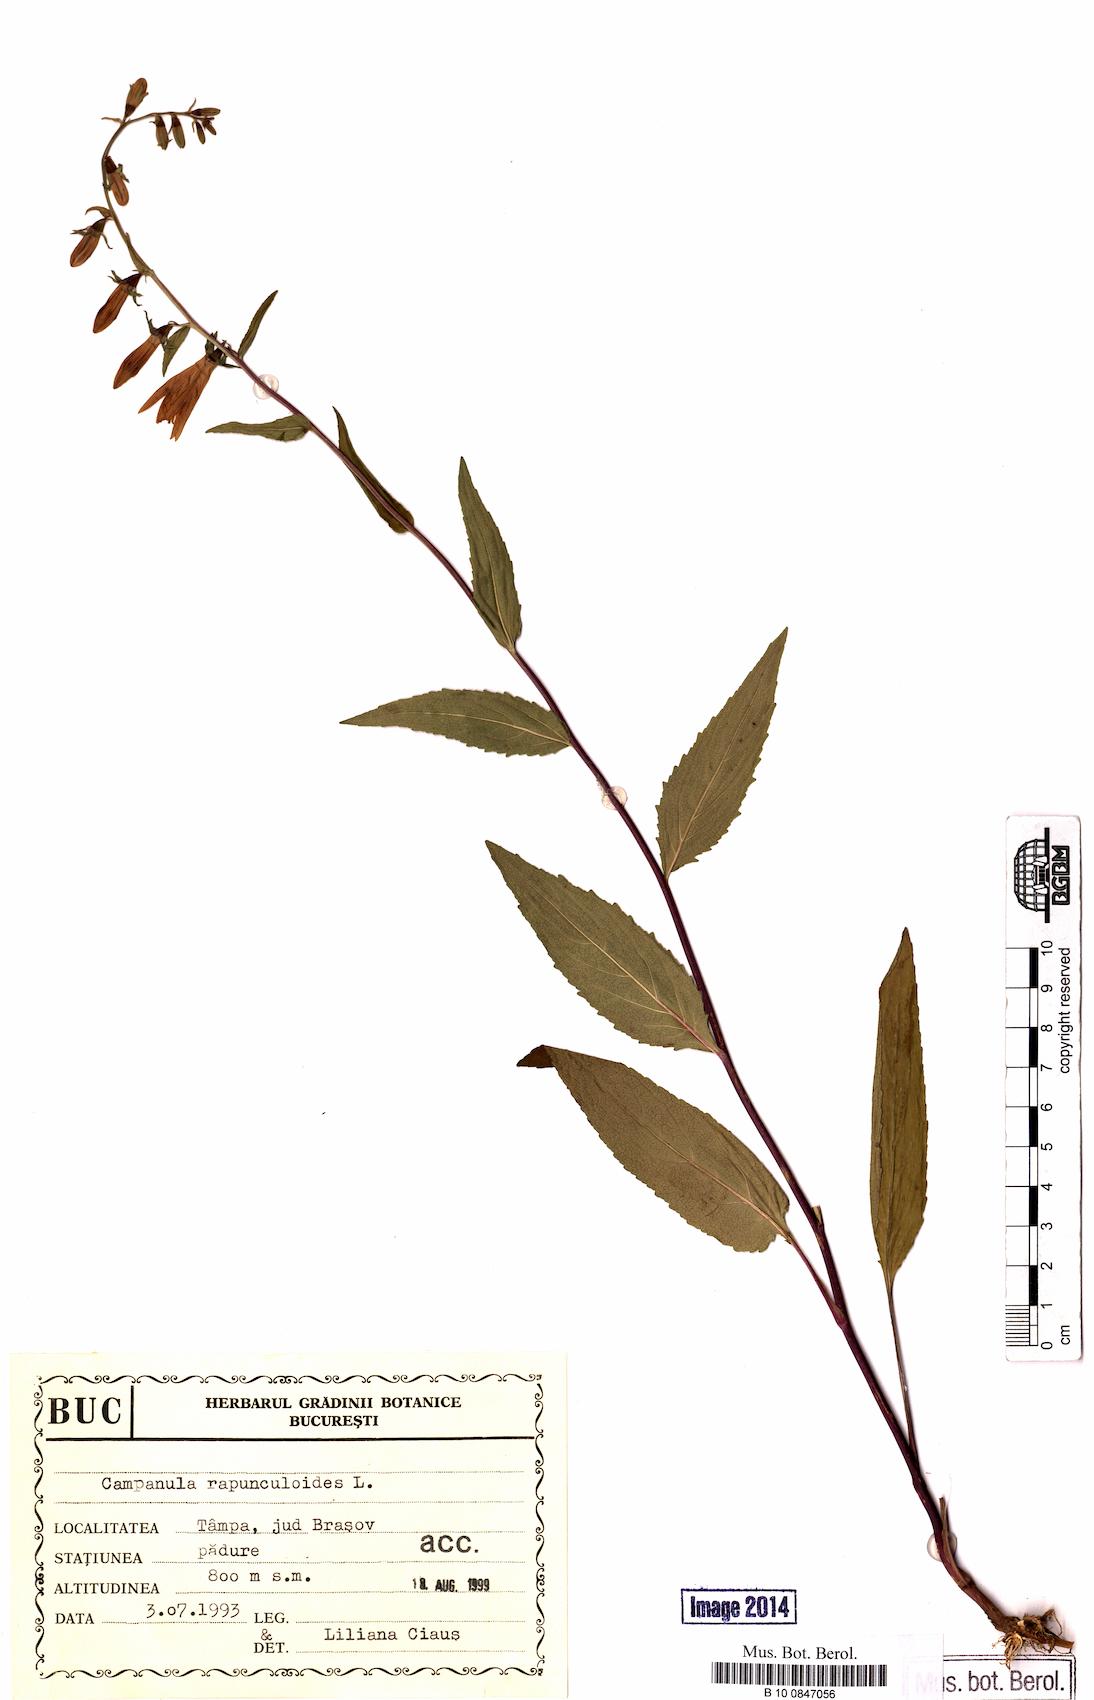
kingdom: Plantae
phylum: Tracheophyta
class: Magnoliopsida
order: Asterales
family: Campanulaceae
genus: Campanula
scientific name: Campanula rapunculoides
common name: Creeping bellflower
